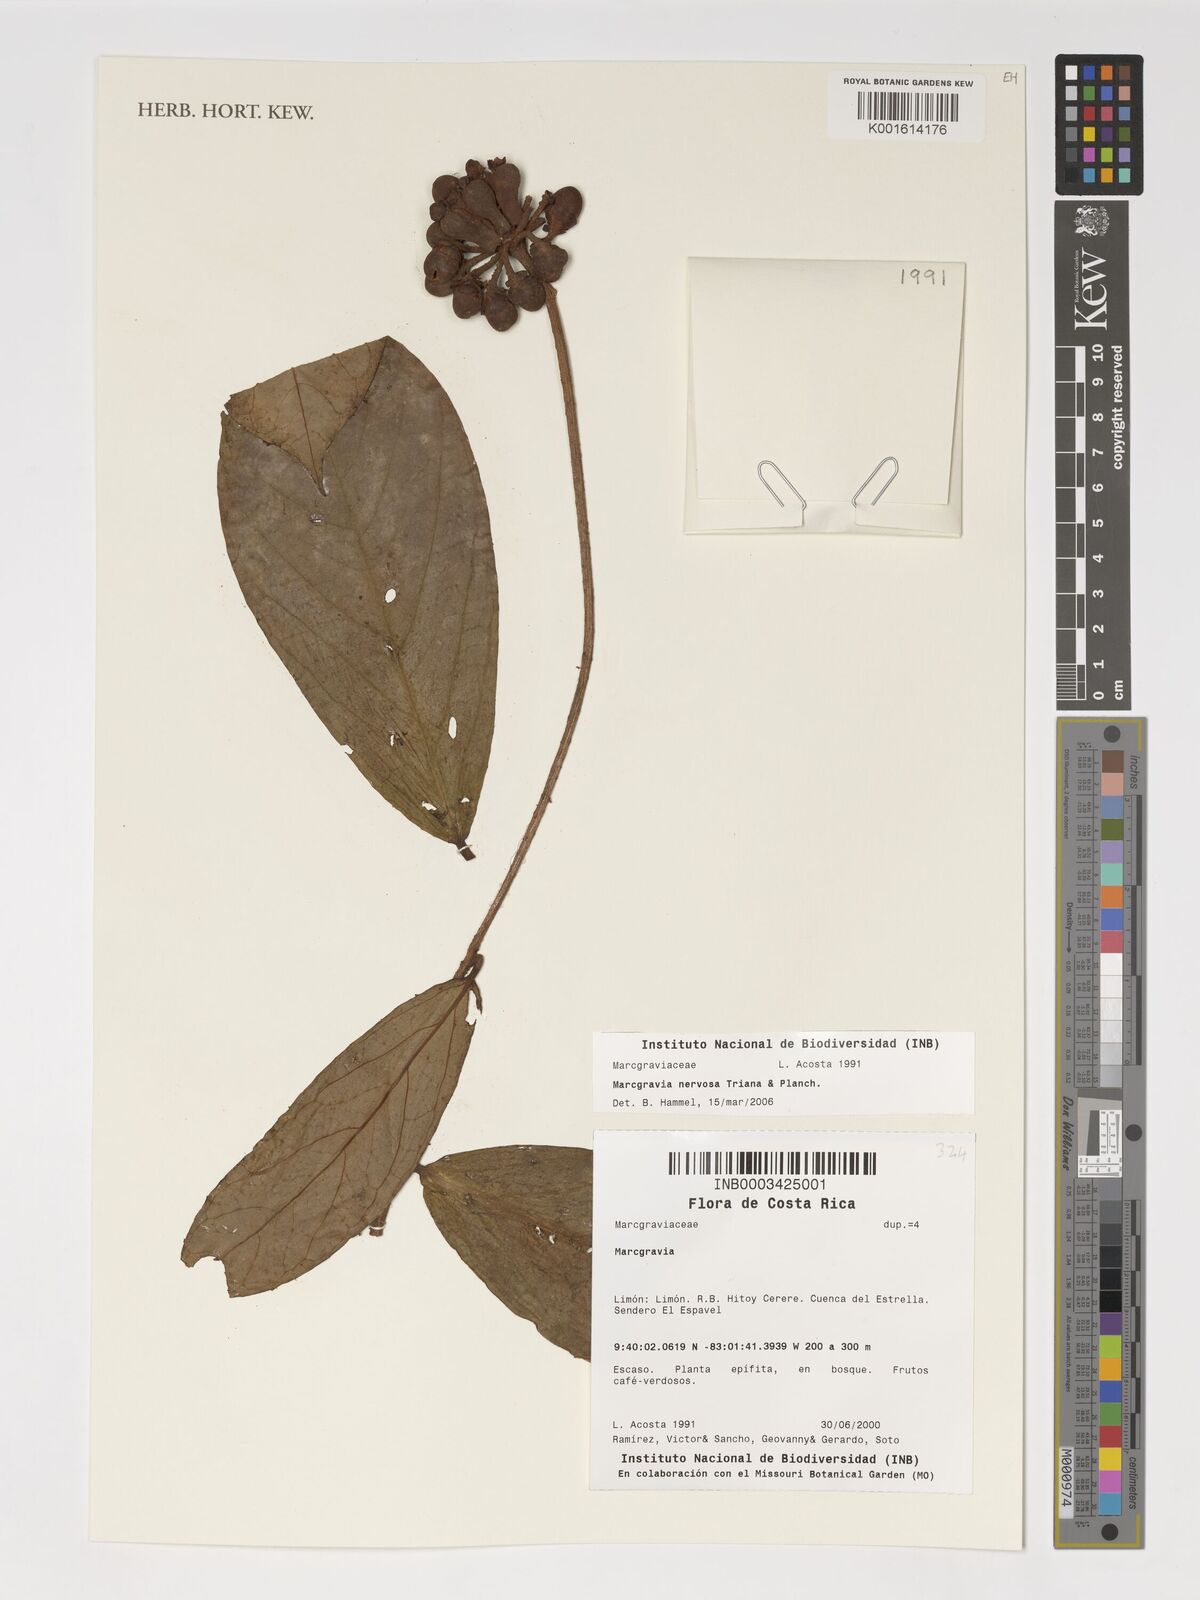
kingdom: Plantae
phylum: Tracheophyta
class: Magnoliopsida
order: Ericales
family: Marcgraviaceae
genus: Marcgravia
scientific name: Marcgravia
